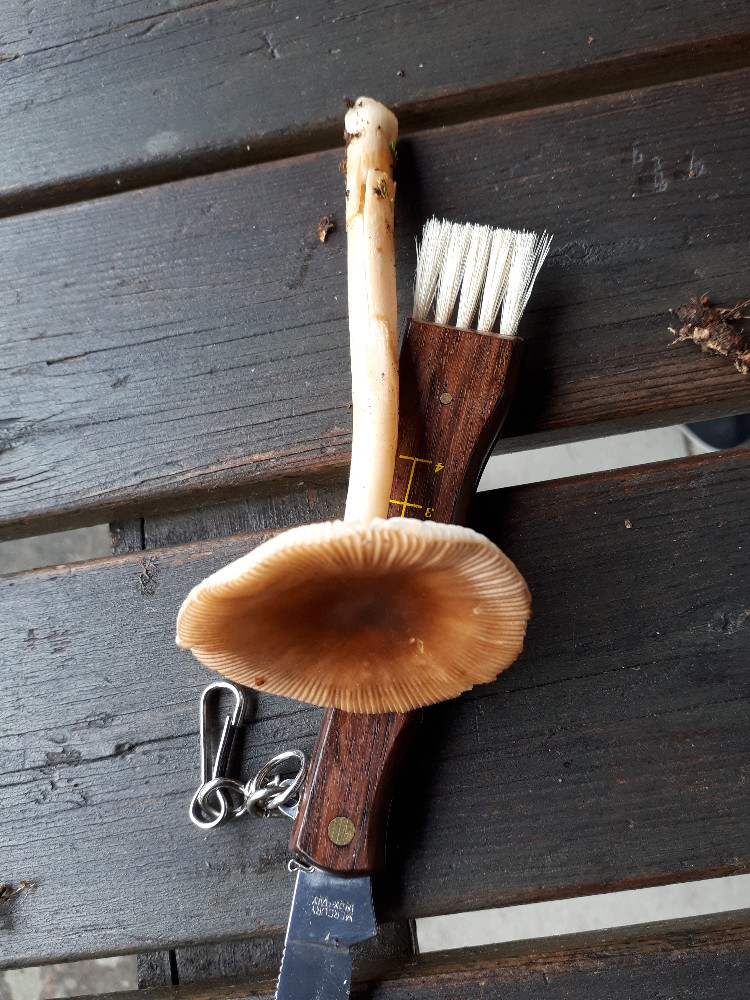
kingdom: Fungi
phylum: Basidiomycota
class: Agaricomycetes
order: Agaricales
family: Amanitaceae
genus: Amanita
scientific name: Amanita fulva
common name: brun kam-fluesvamp
